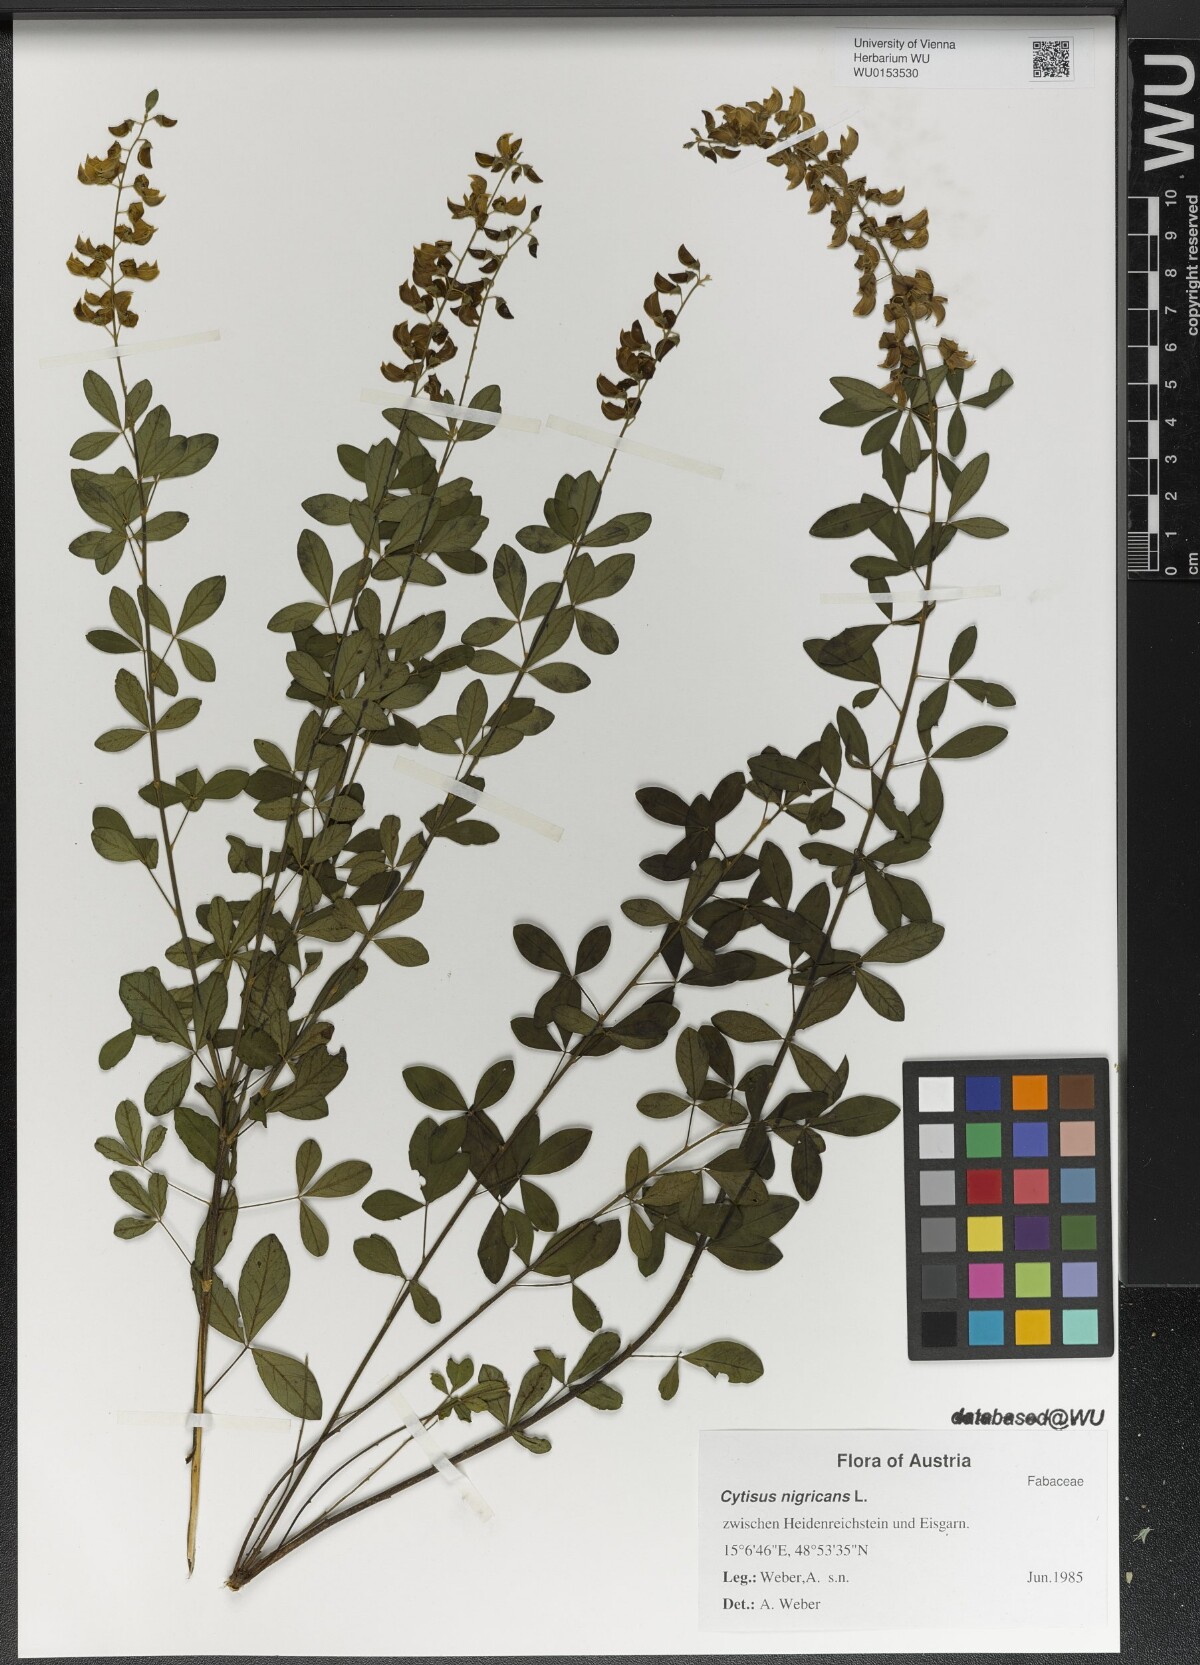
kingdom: Plantae
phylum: Tracheophyta
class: Magnoliopsida
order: Fabales
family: Fabaceae
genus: Cytisus
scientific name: Cytisus nigricans
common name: Black broom
